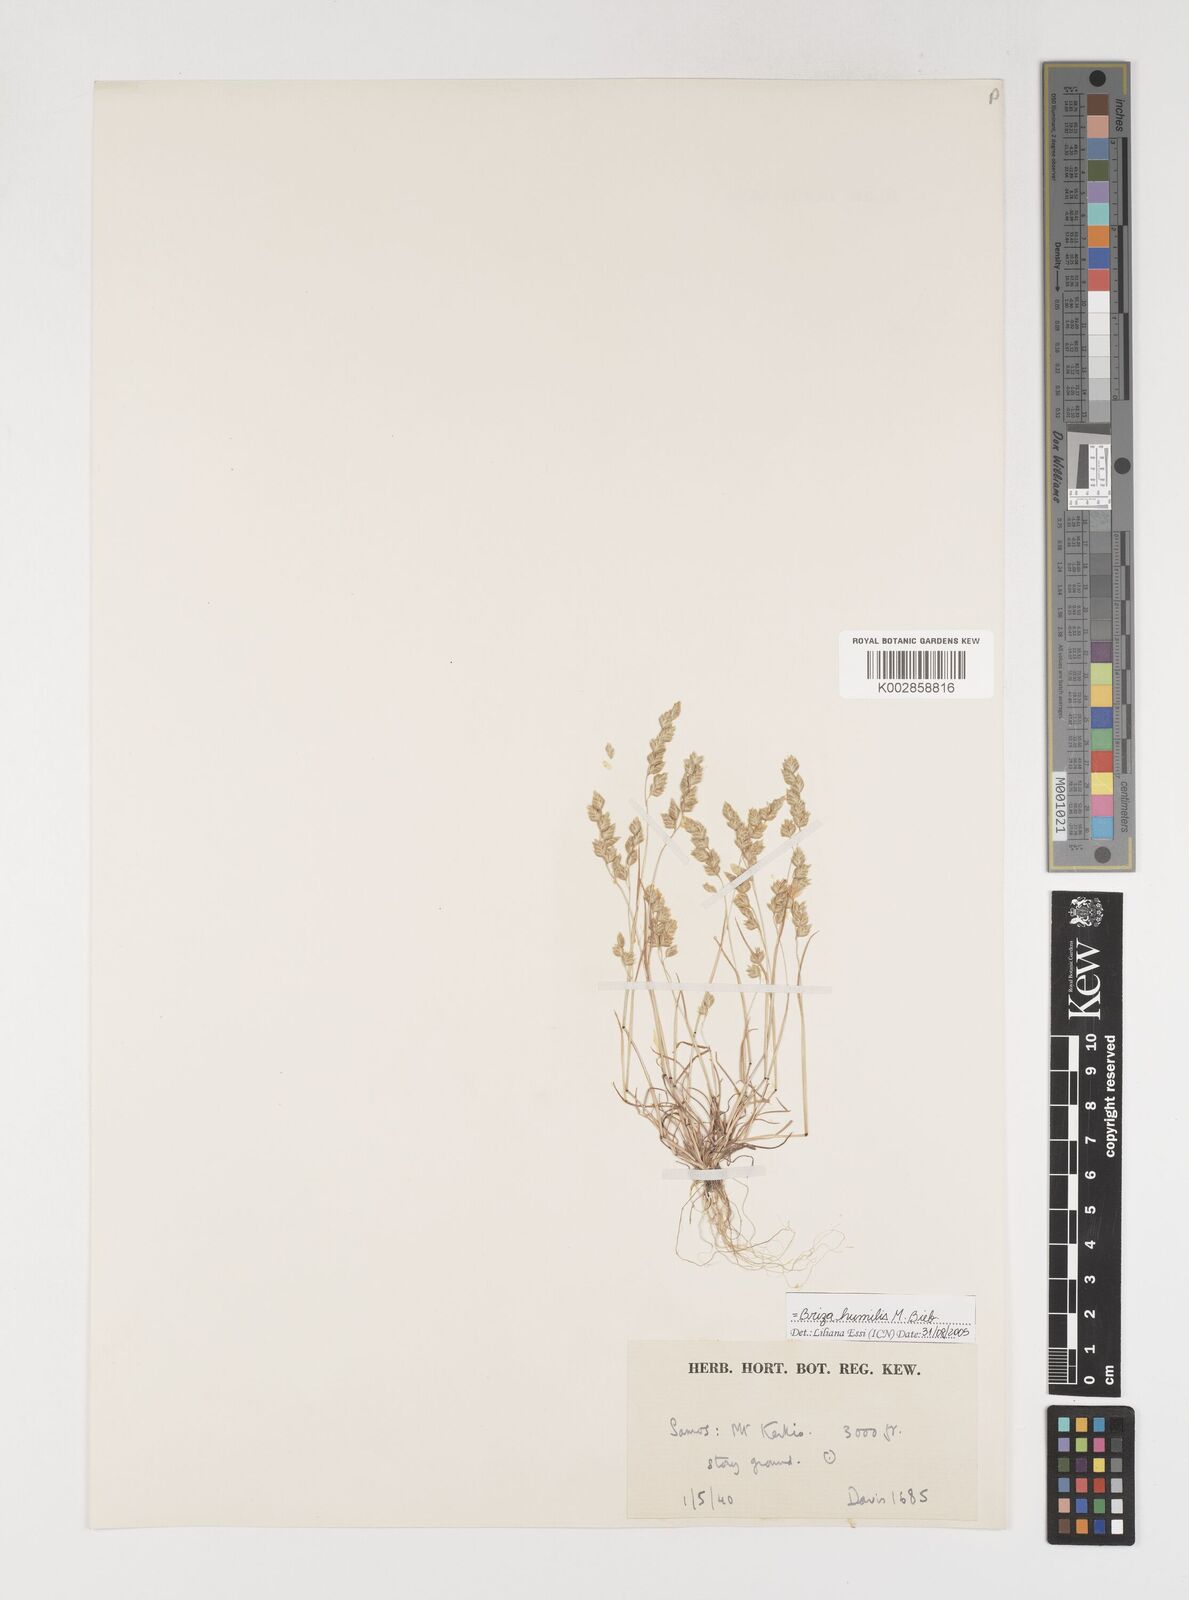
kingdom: Plantae
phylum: Tracheophyta
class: Liliopsida
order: Poales
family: Poaceae
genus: Briza
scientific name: Briza humilis
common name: Spiked quaking grass
